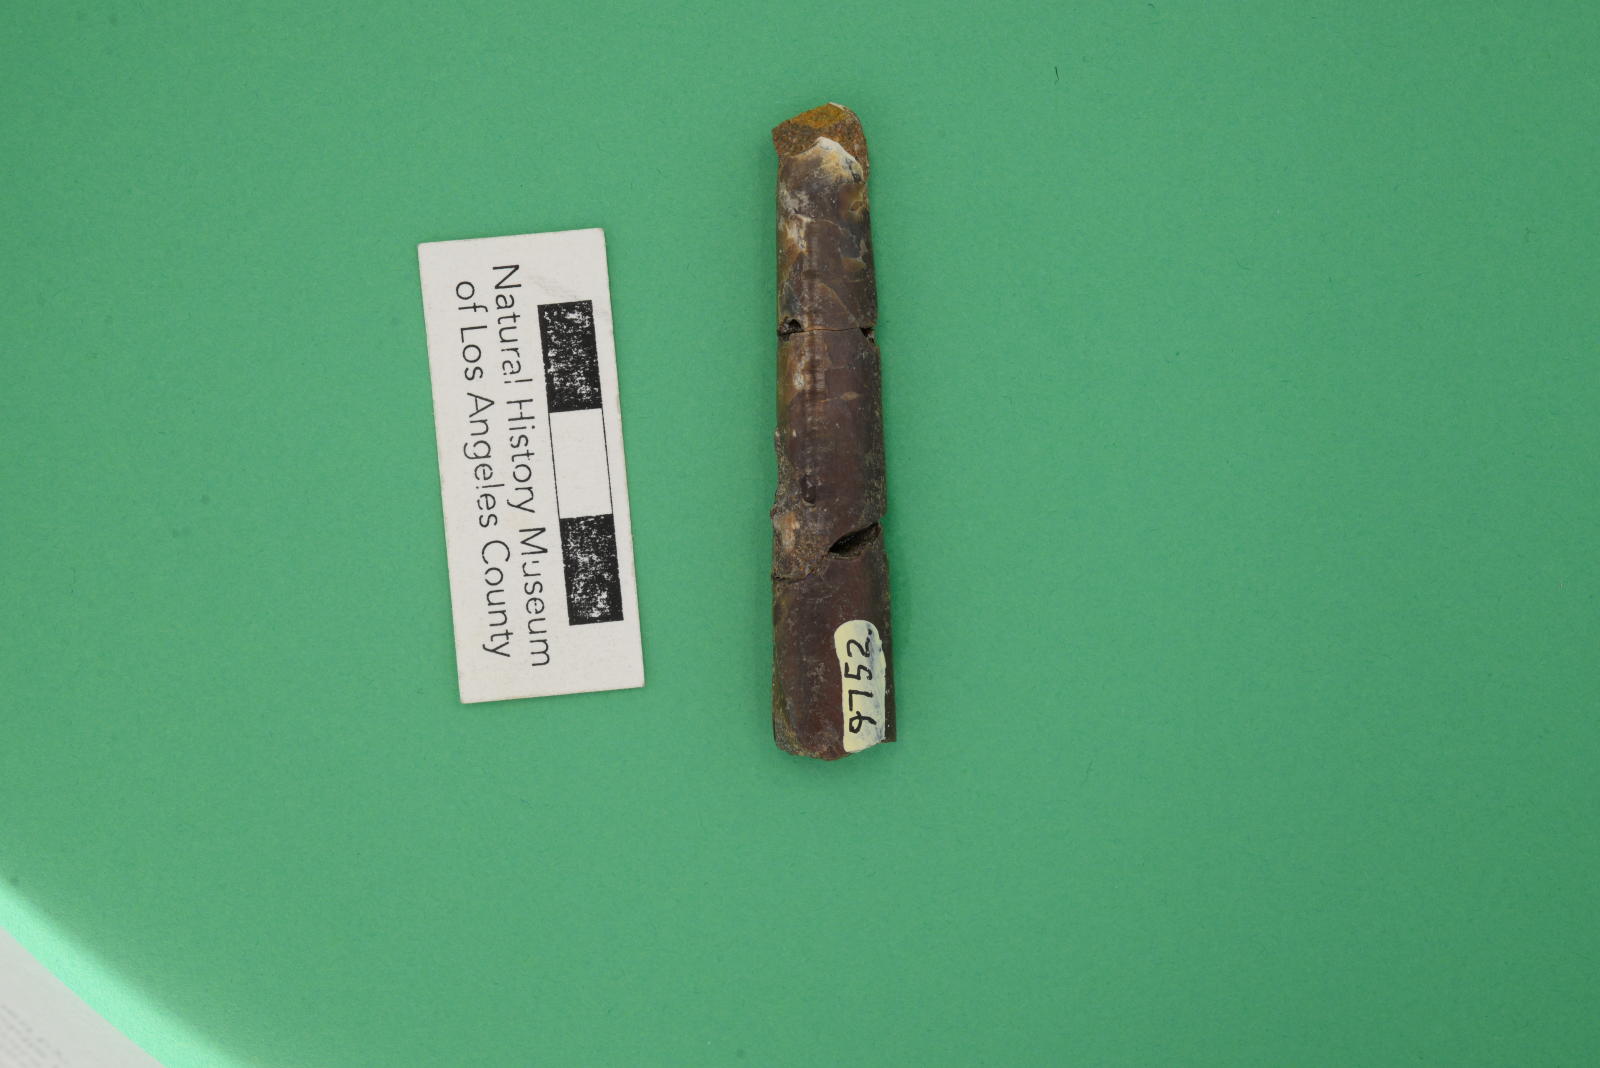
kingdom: Animalia
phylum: Mollusca
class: Cephalopoda
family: Baculitidae
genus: Baculites
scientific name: Baculites schencki
